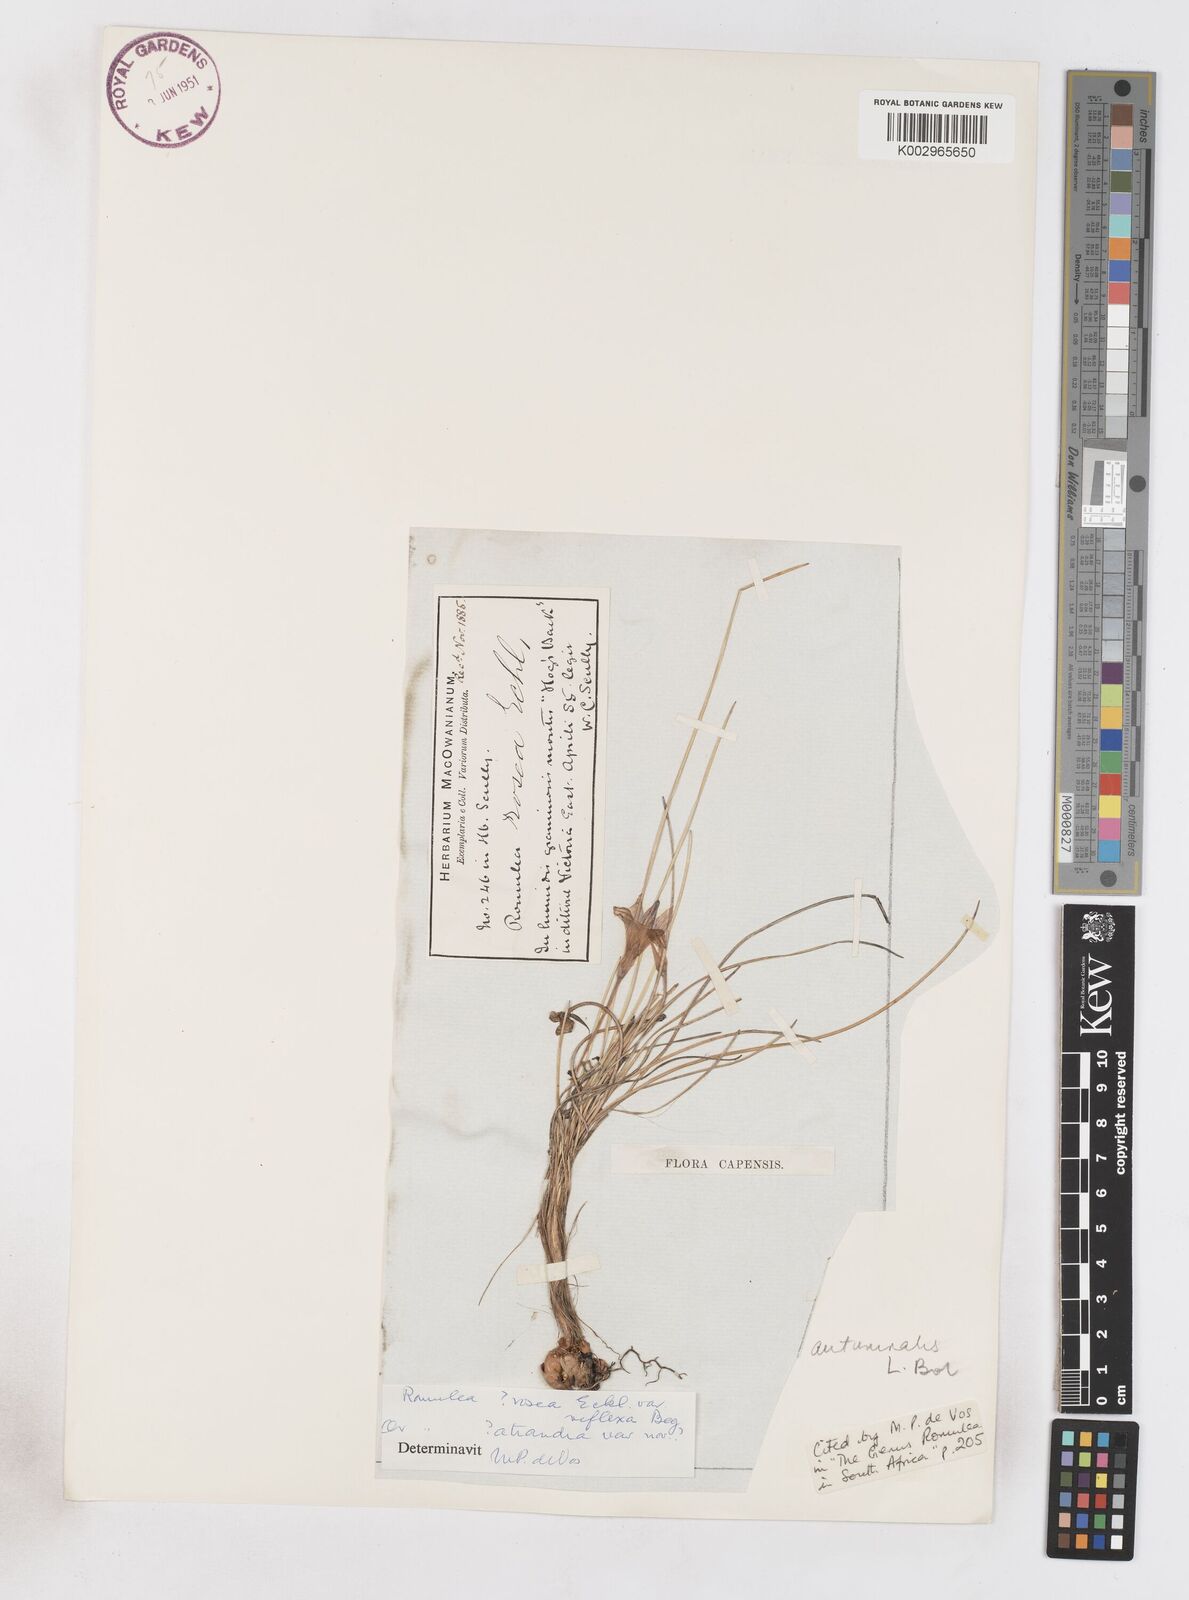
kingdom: Plantae
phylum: Tracheophyta
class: Liliopsida
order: Asparagales
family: Iridaceae
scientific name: Iridaceae
